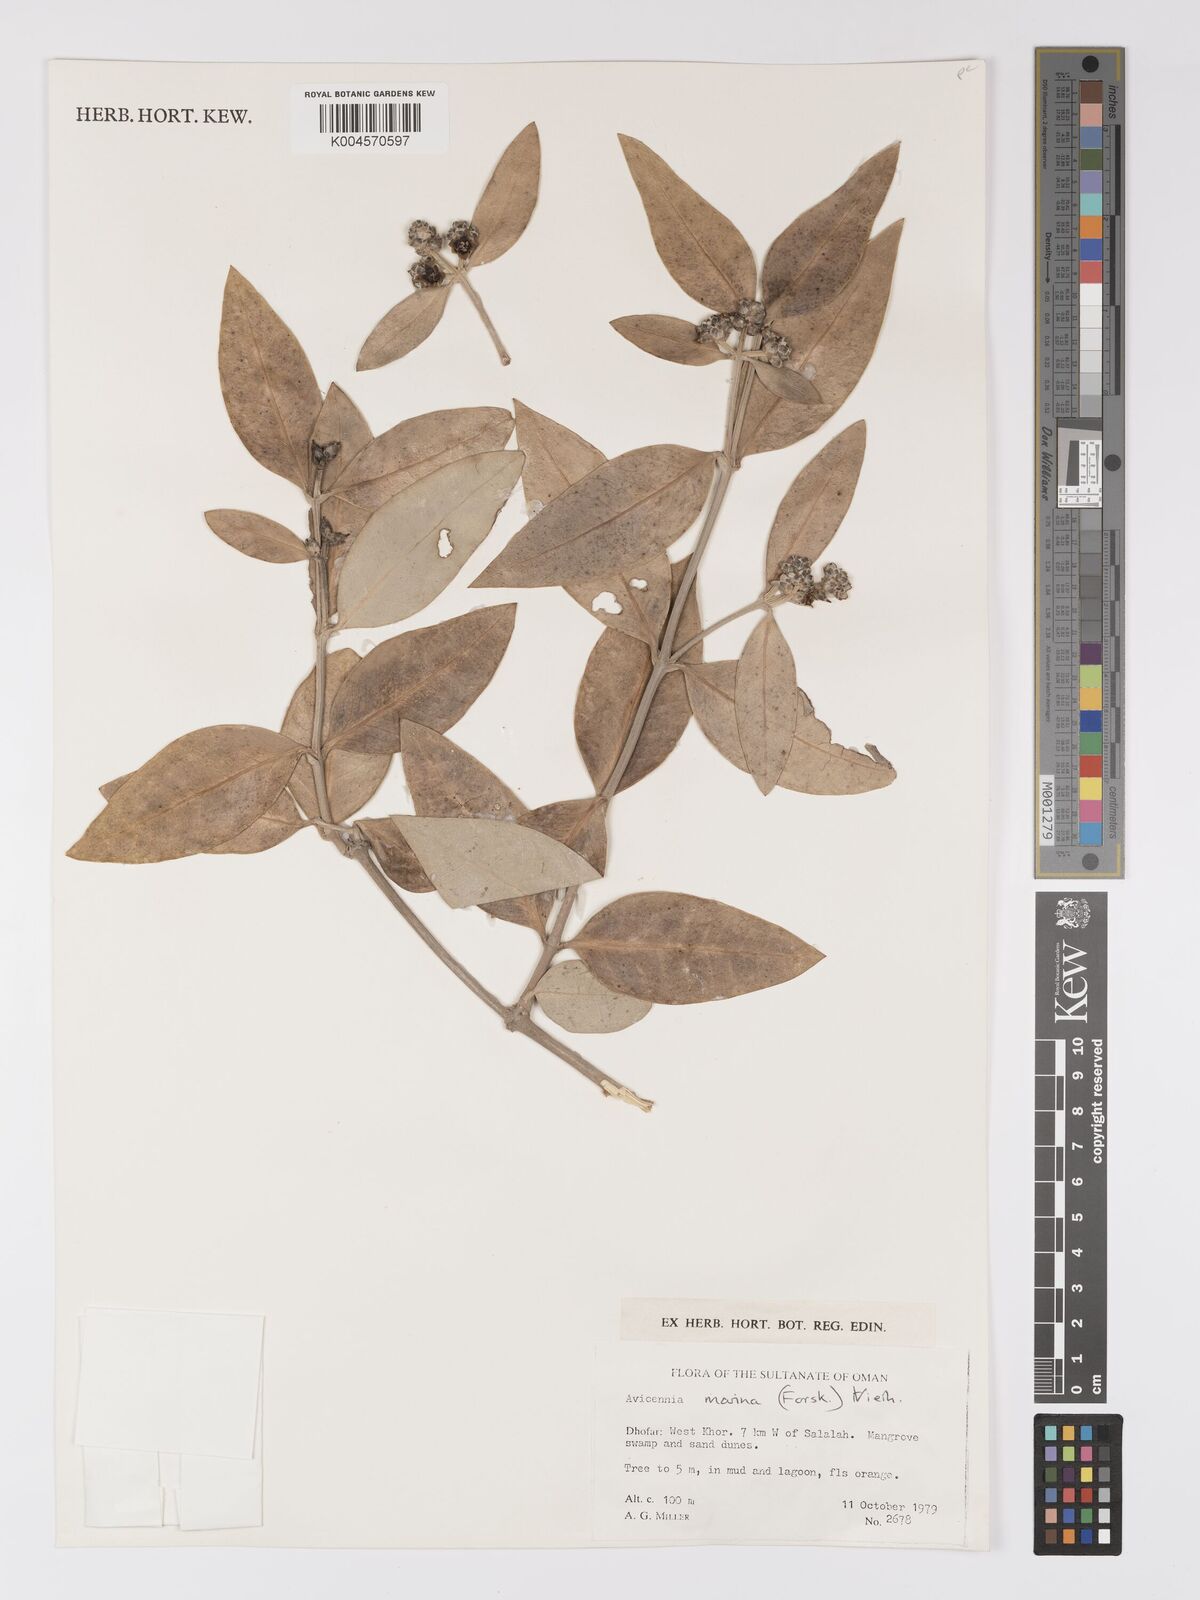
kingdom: Plantae
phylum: Tracheophyta
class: Magnoliopsida
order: Lamiales
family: Acanthaceae
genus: Avicennia
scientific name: Avicennia
